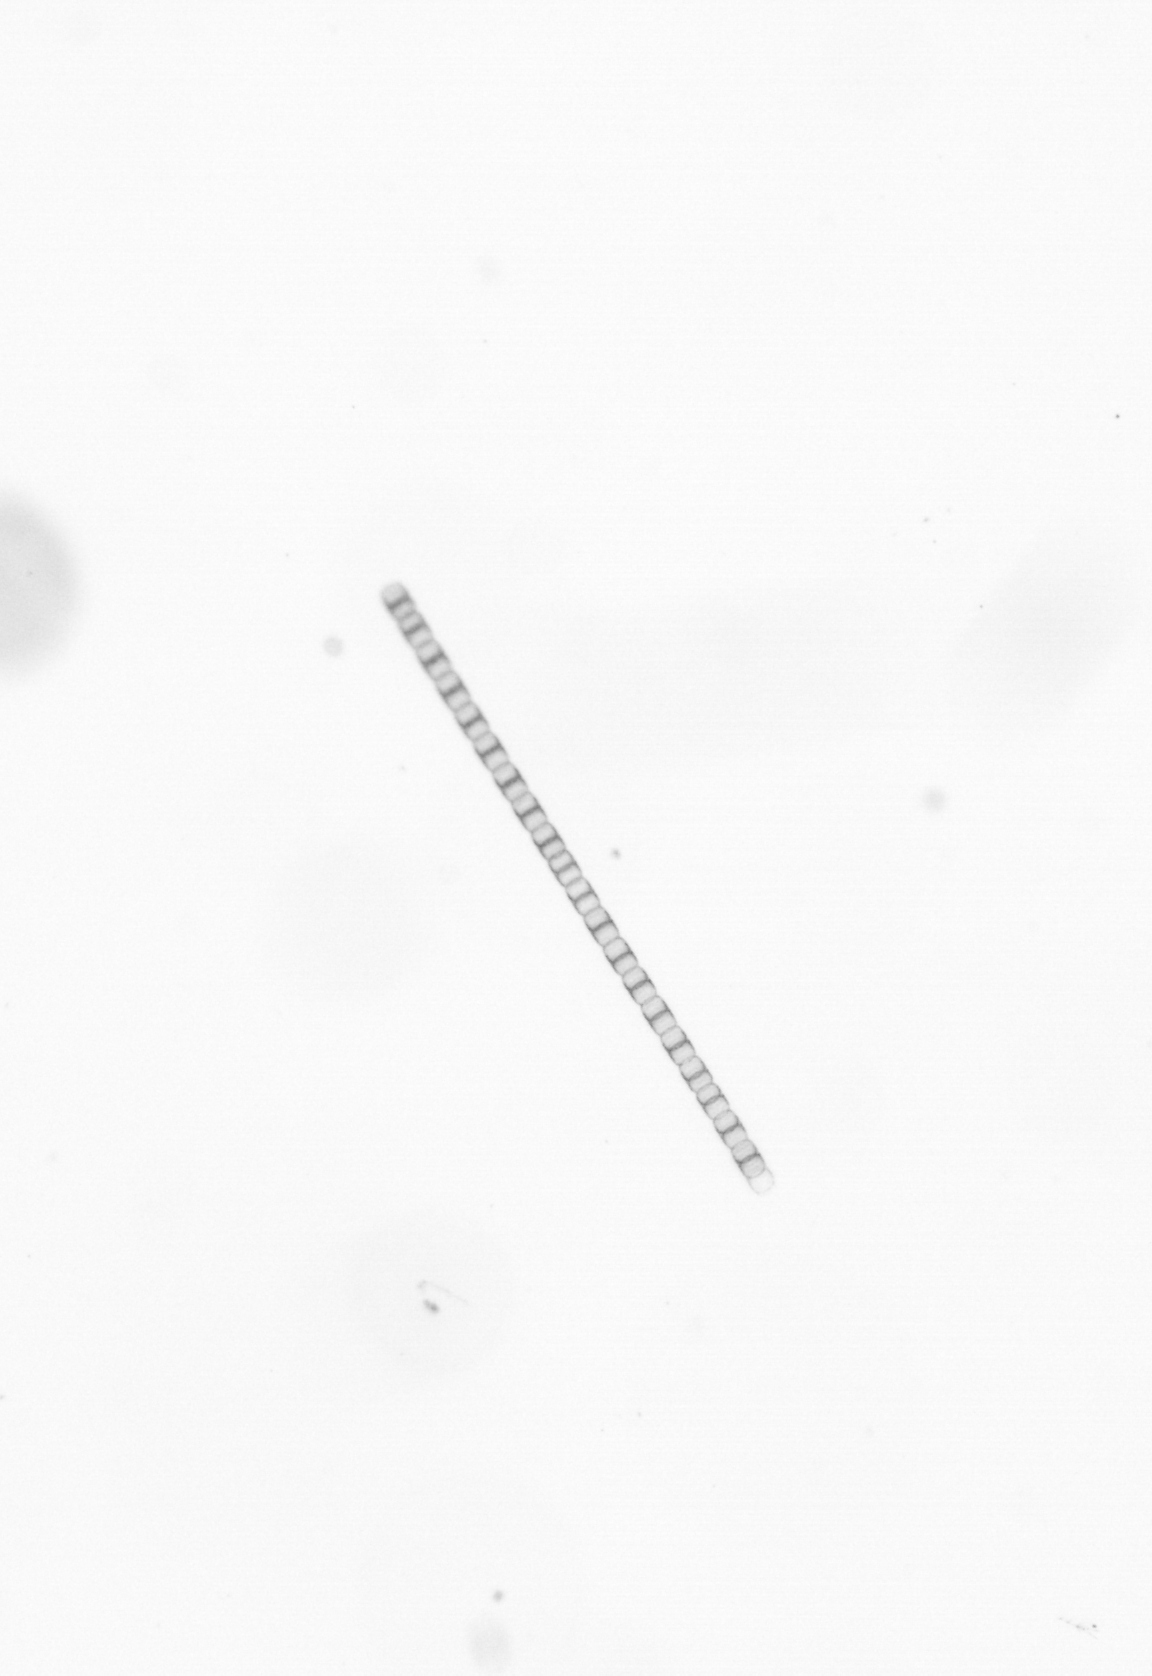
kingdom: Chromista
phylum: Ochrophyta
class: Bacillariophyceae
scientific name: Bacillariophyceae
